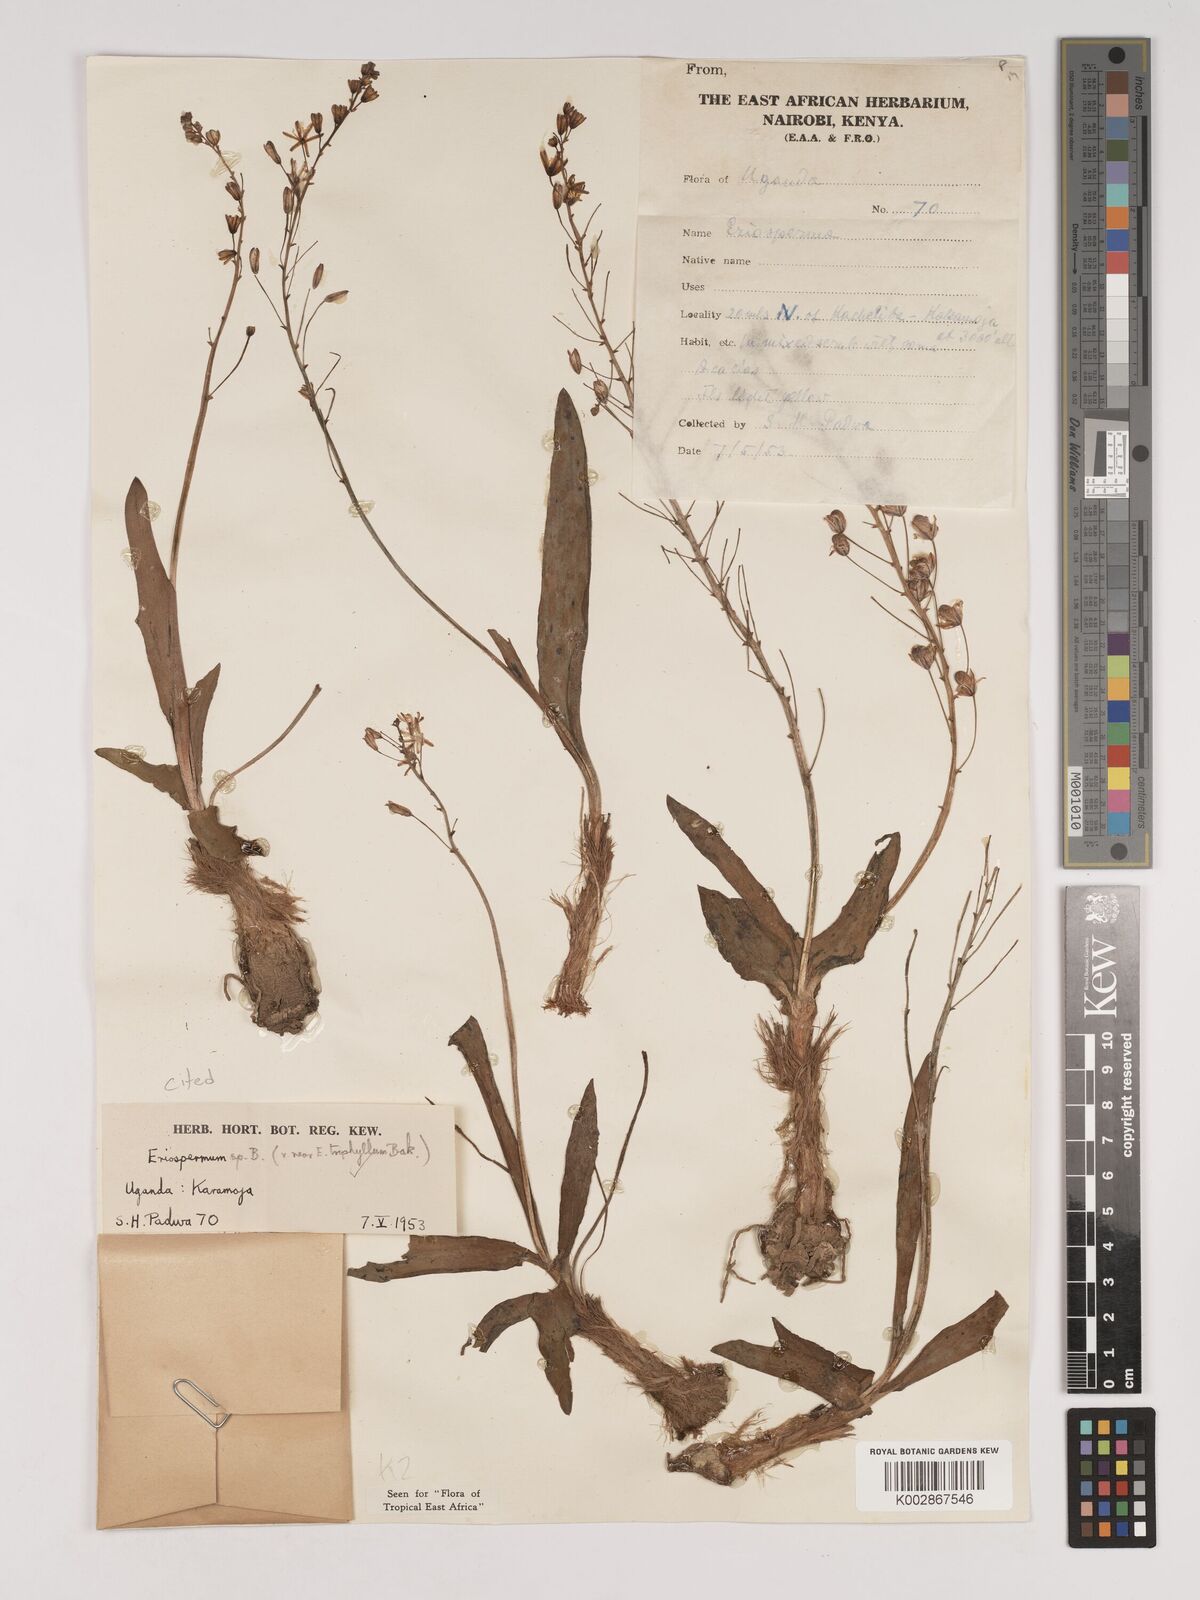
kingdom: Plantae
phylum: Tracheophyta
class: Liliopsida
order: Asparagales
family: Asparagaceae
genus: Eriospermum
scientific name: Eriospermum triphyllum
